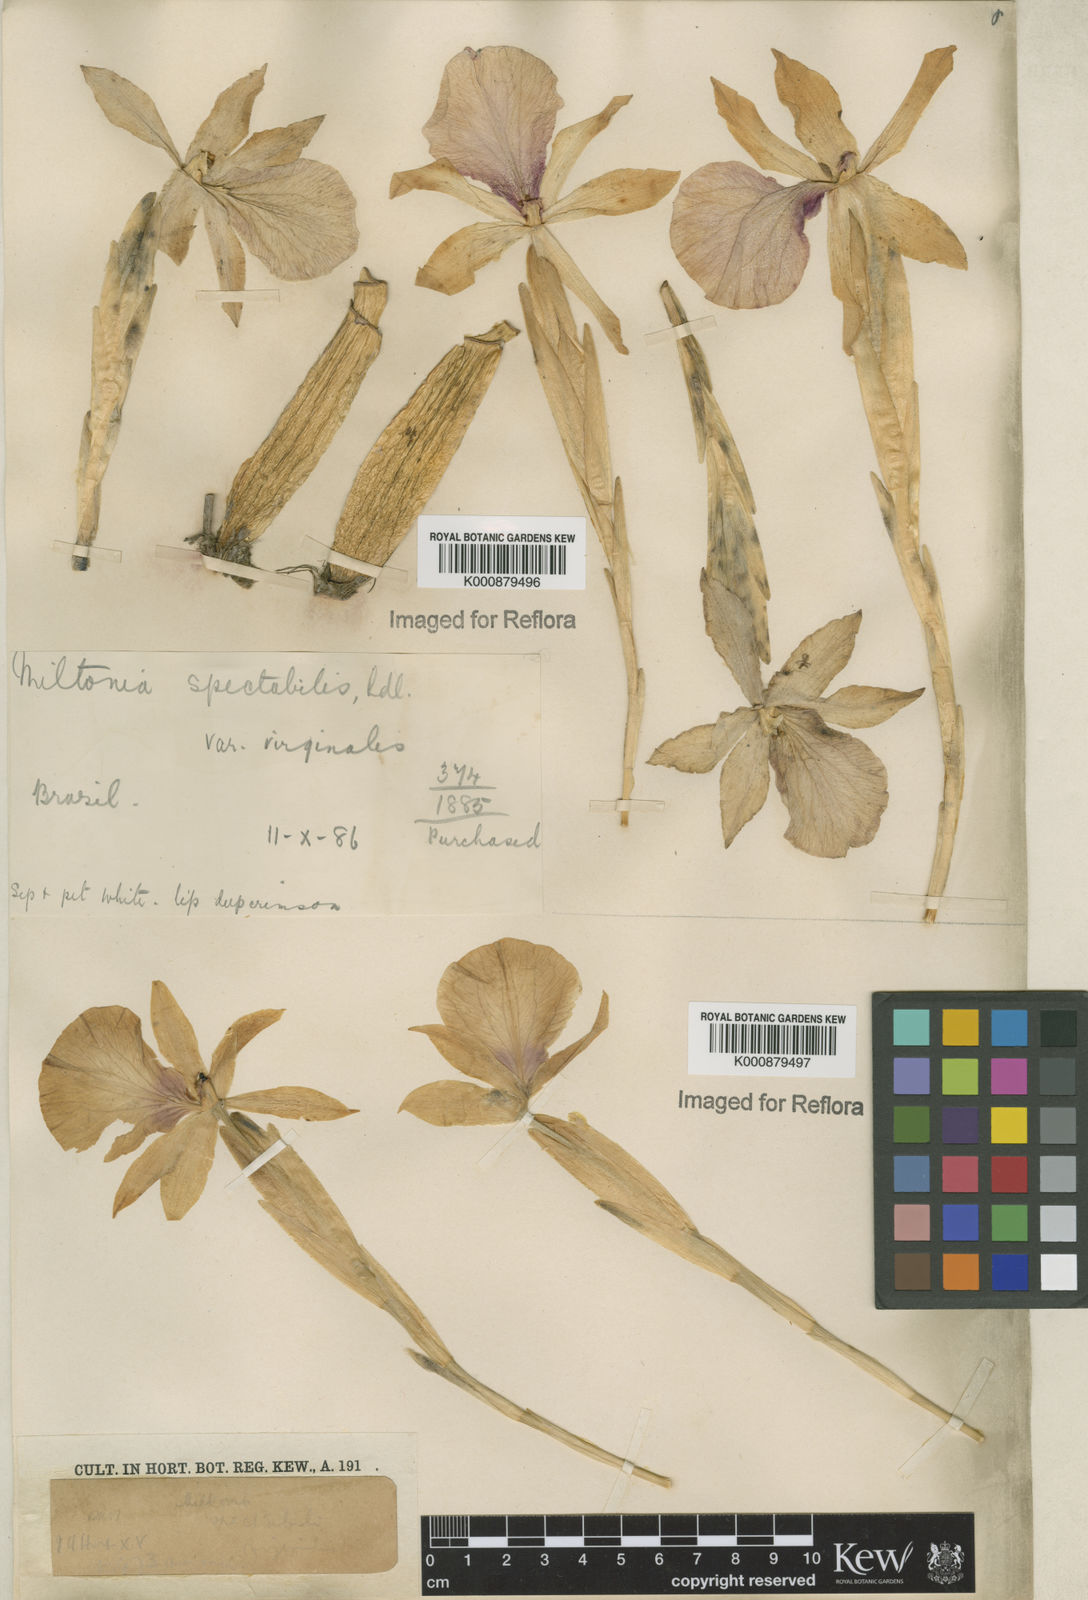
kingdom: Plantae
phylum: Tracheophyta
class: Liliopsida
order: Asparagales
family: Orchidaceae
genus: Miltonia
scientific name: Miltonia spectabilis
